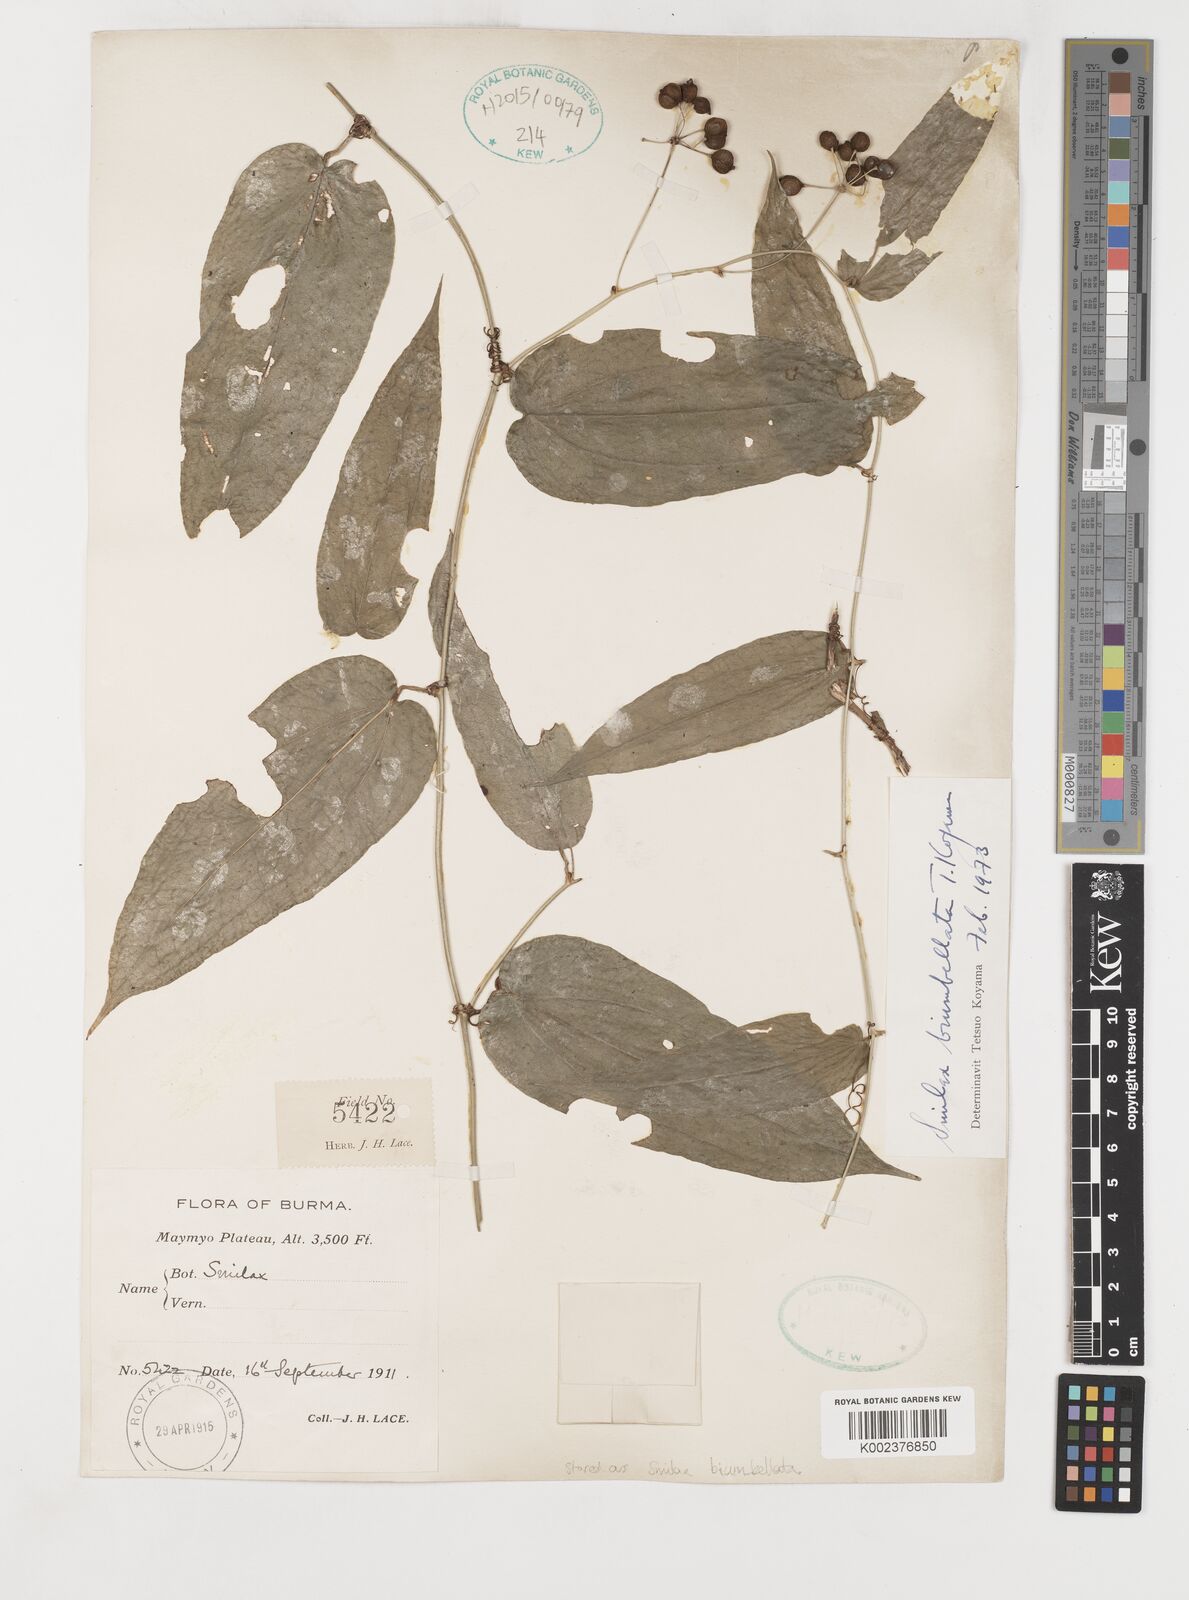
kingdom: Plantae
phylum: Tracheophyta
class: Liliopsida
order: Liliales
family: Smilacaceae
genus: Smilax
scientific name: Smilax biumbellata
